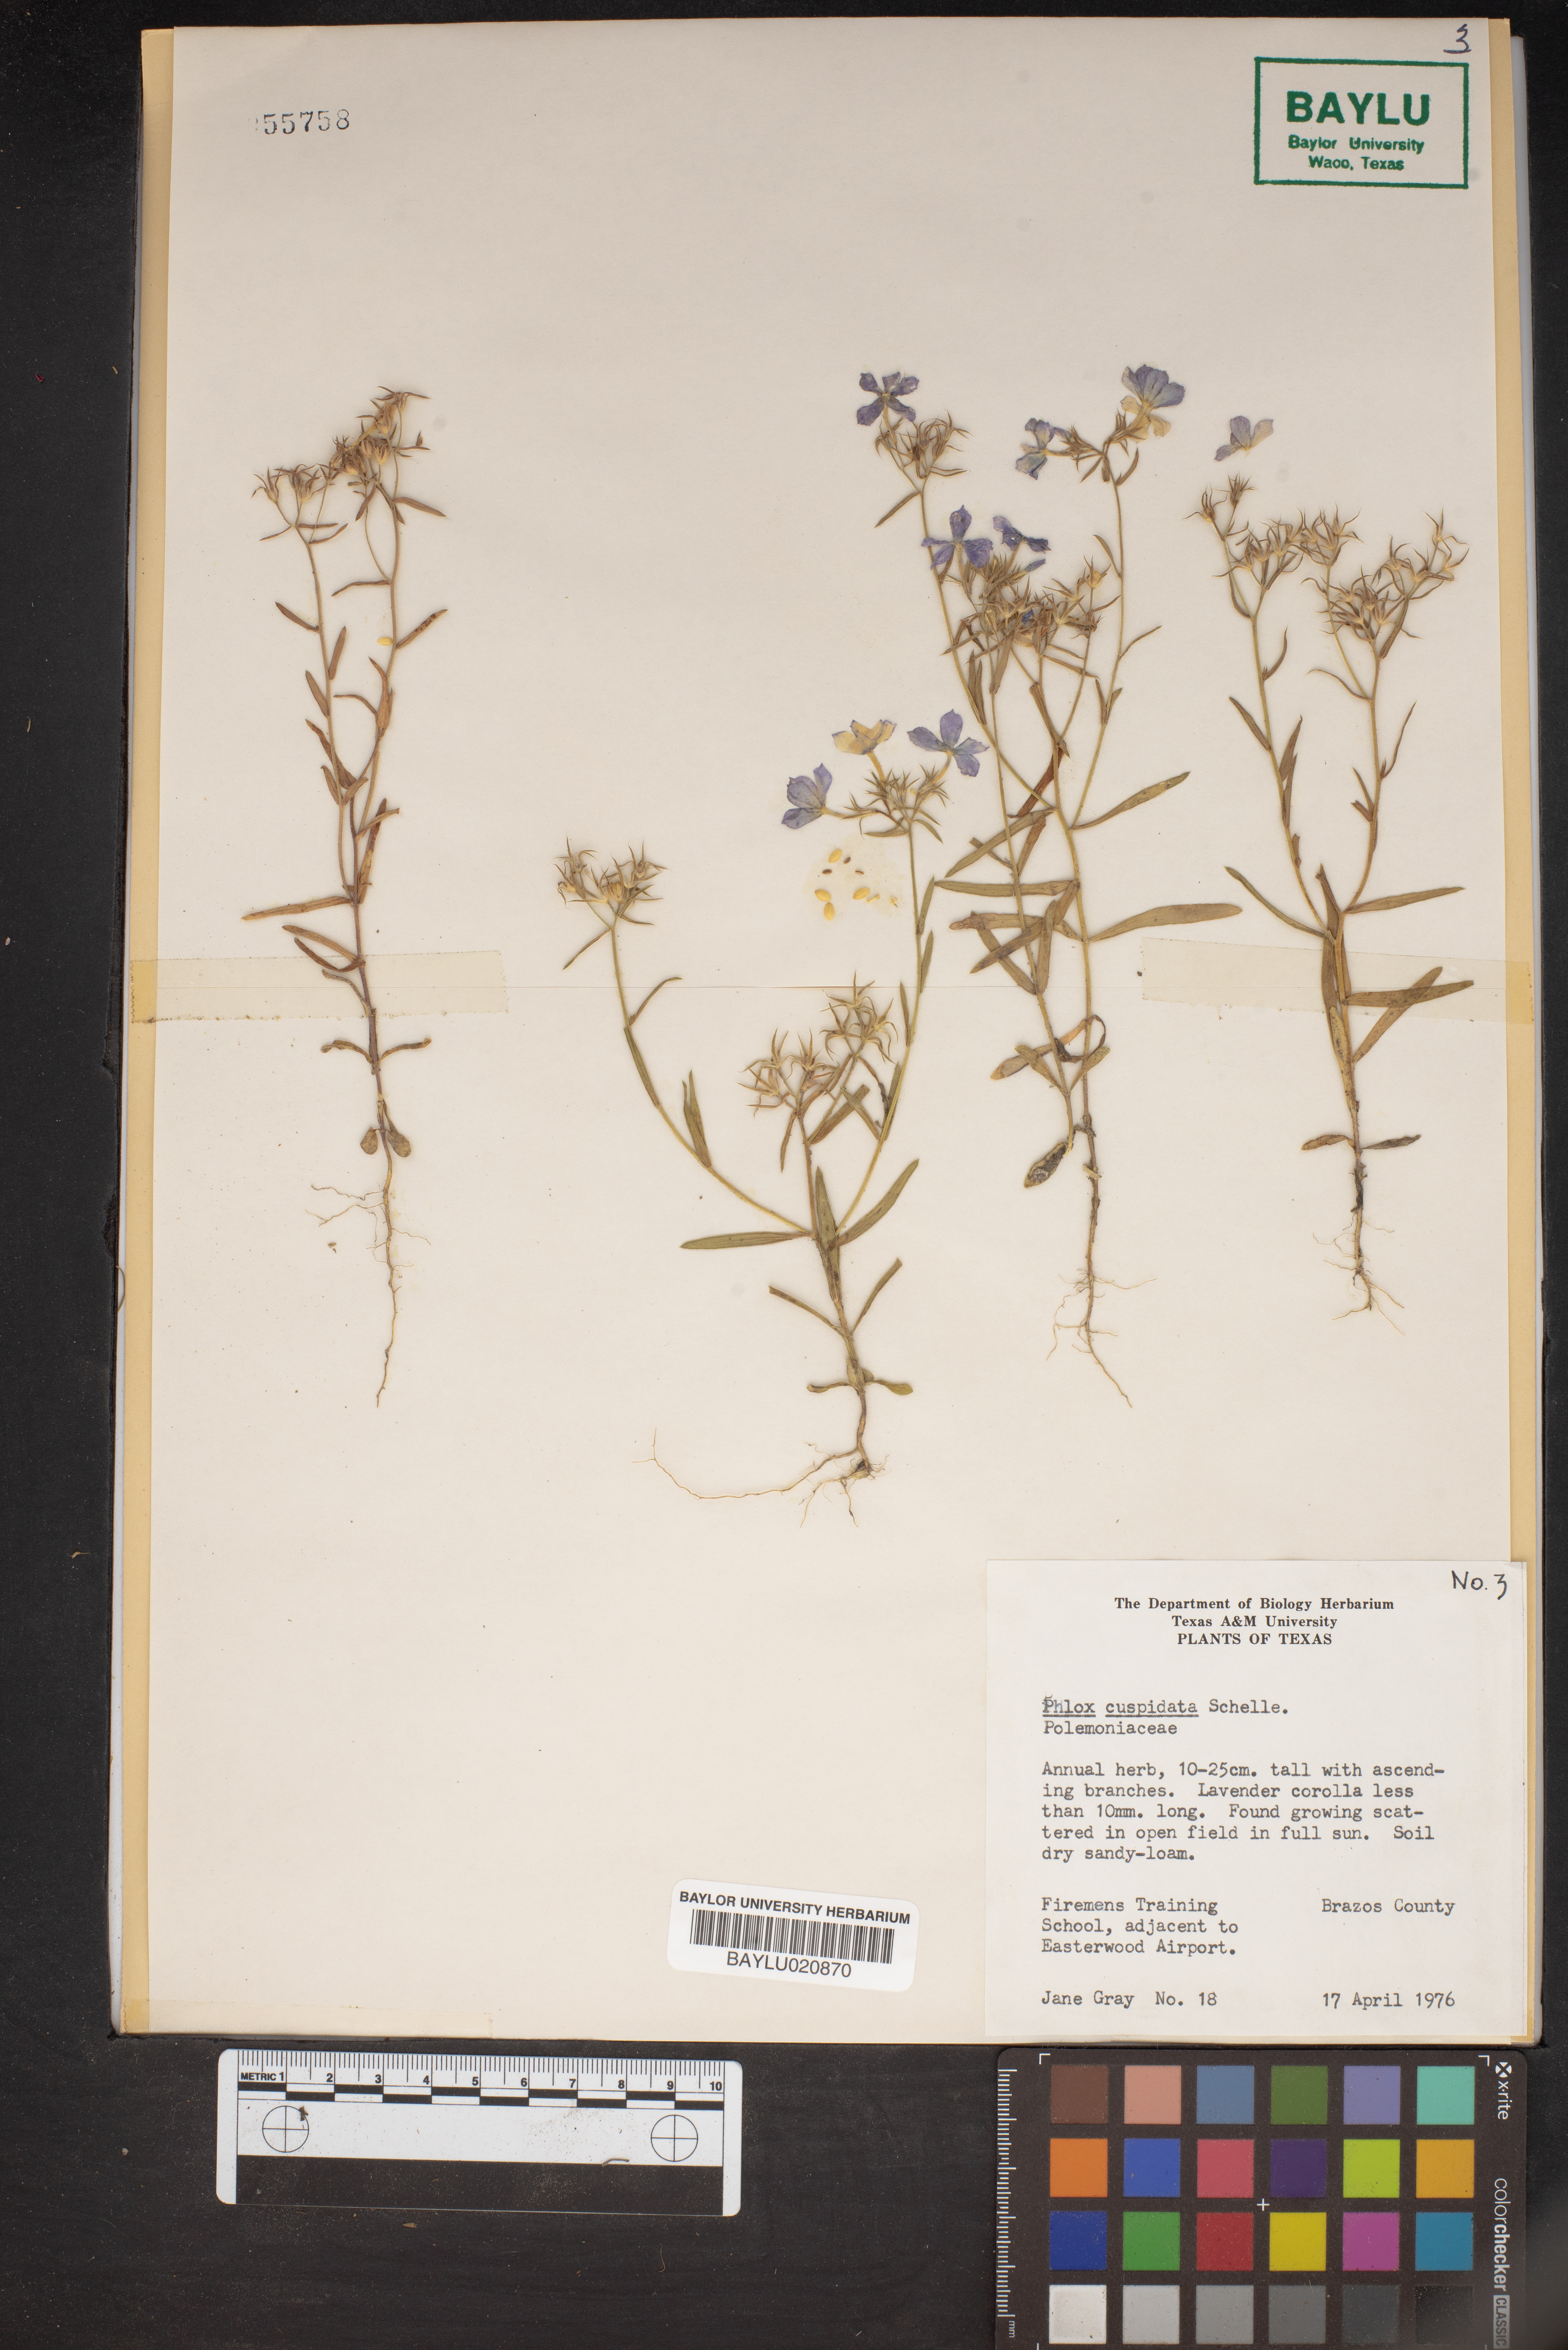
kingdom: Plantae
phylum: Tracheophyta
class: Magnoliopsida
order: Ericales
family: Polemoniaceae
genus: Phlox
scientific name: Phlox cuspidata
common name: Pointed phlox
